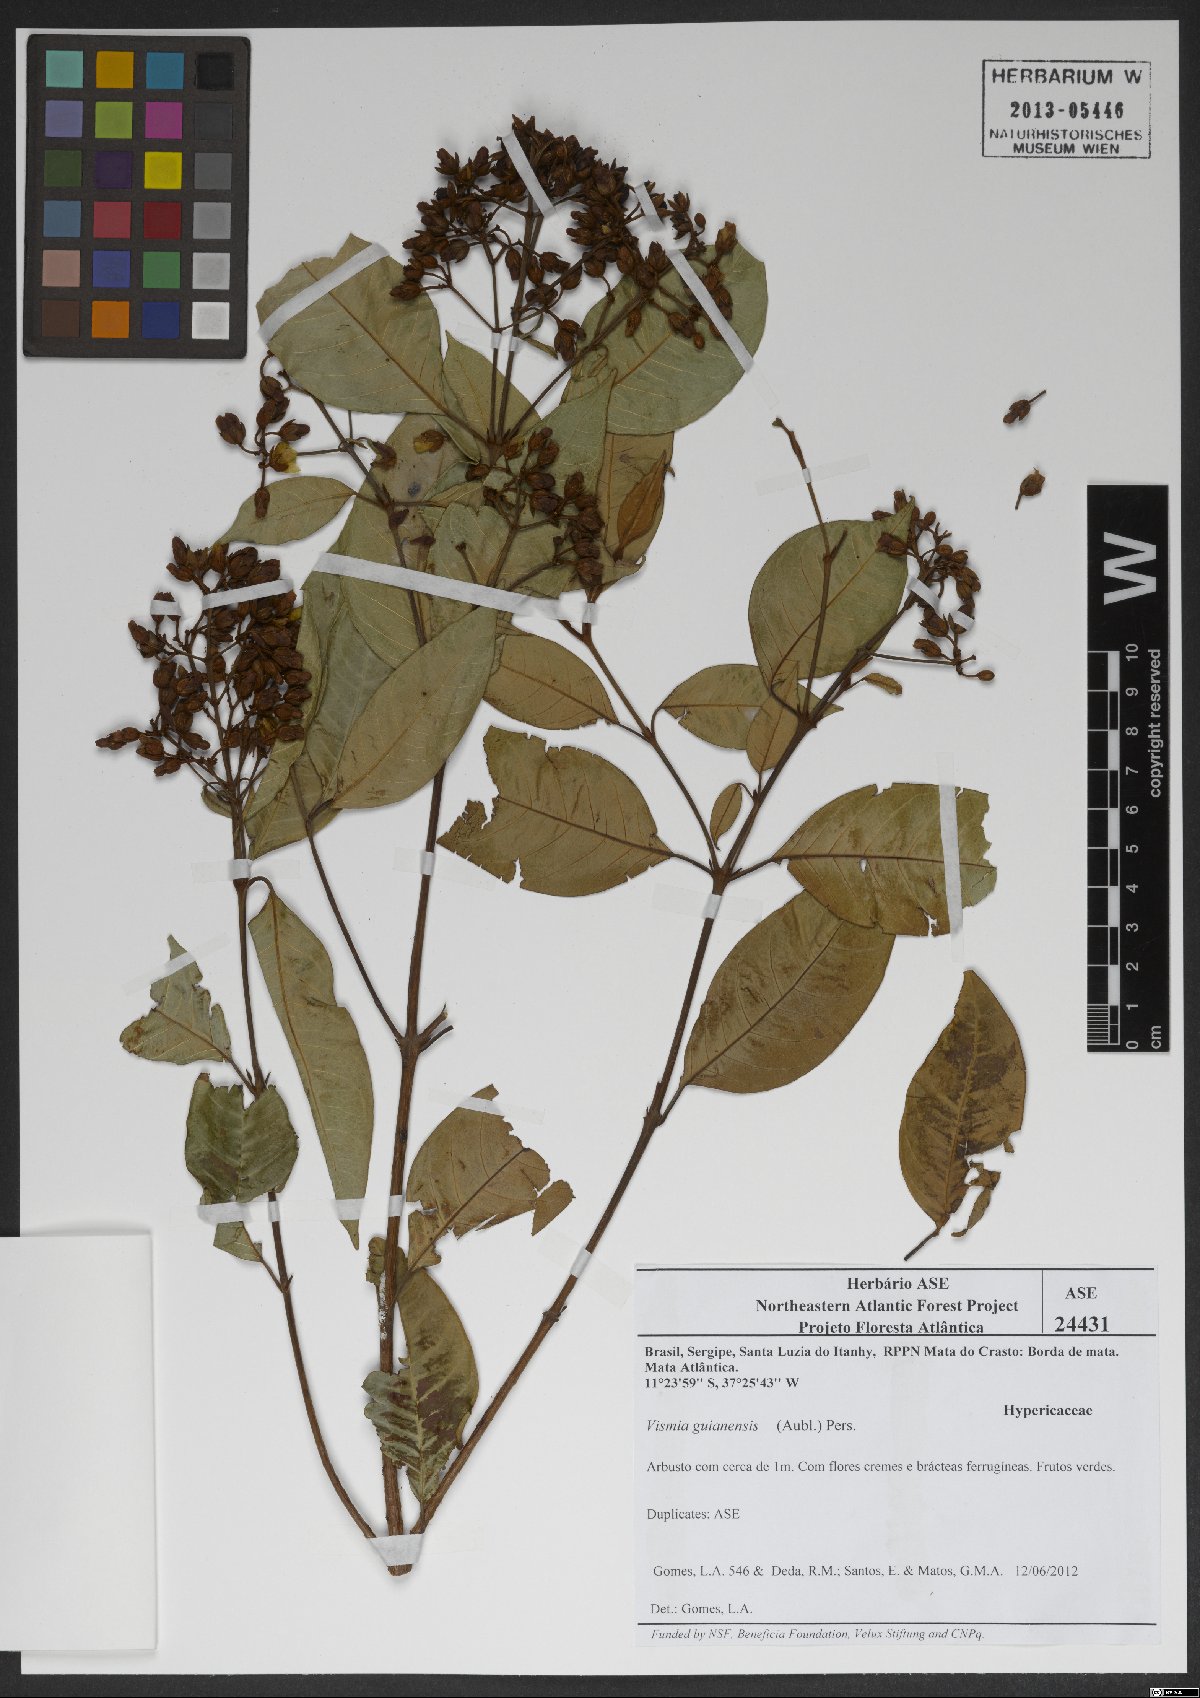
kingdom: Plantae
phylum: Tracheophyta
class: Magnoliopsida
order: Malpighiales
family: Hypericaceae
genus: Vismia
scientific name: Vismia guianensis
